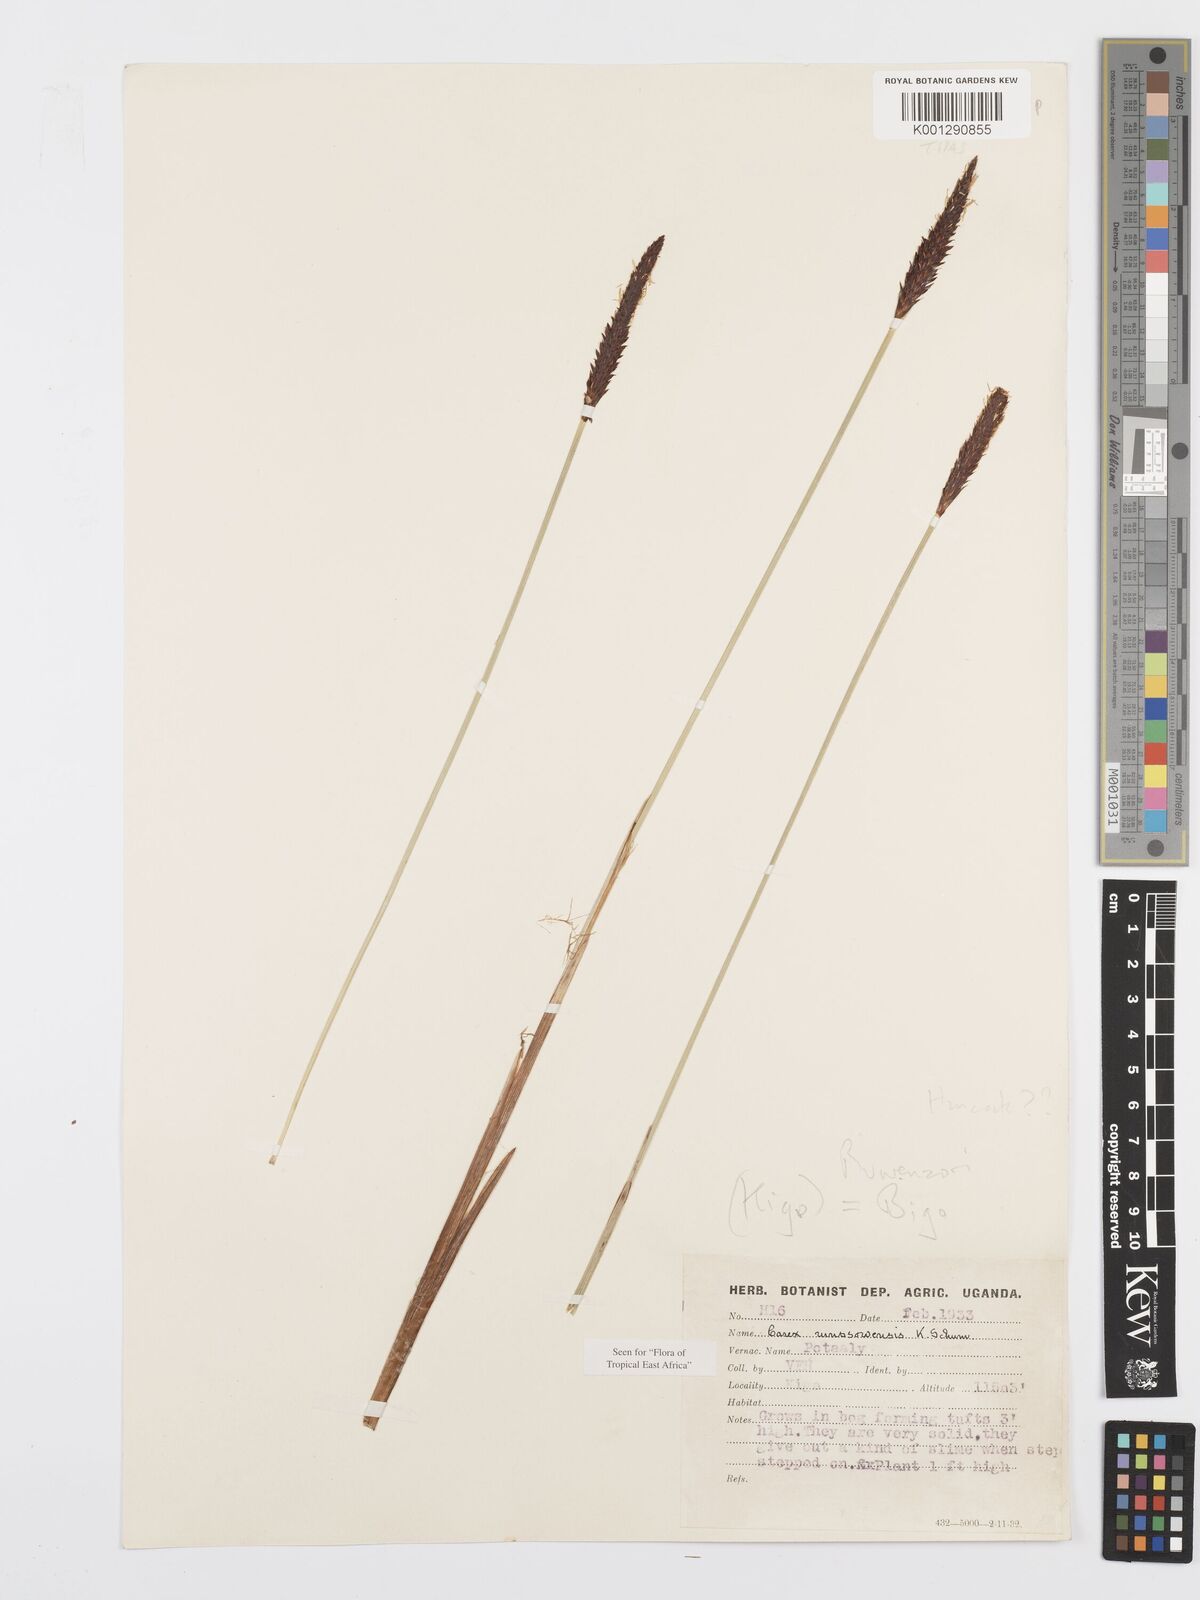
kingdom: Plantae
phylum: Tracheophyta
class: Liliopsida
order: Poales
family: Cyperaceae
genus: Carex
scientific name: Carex runssoroensis
